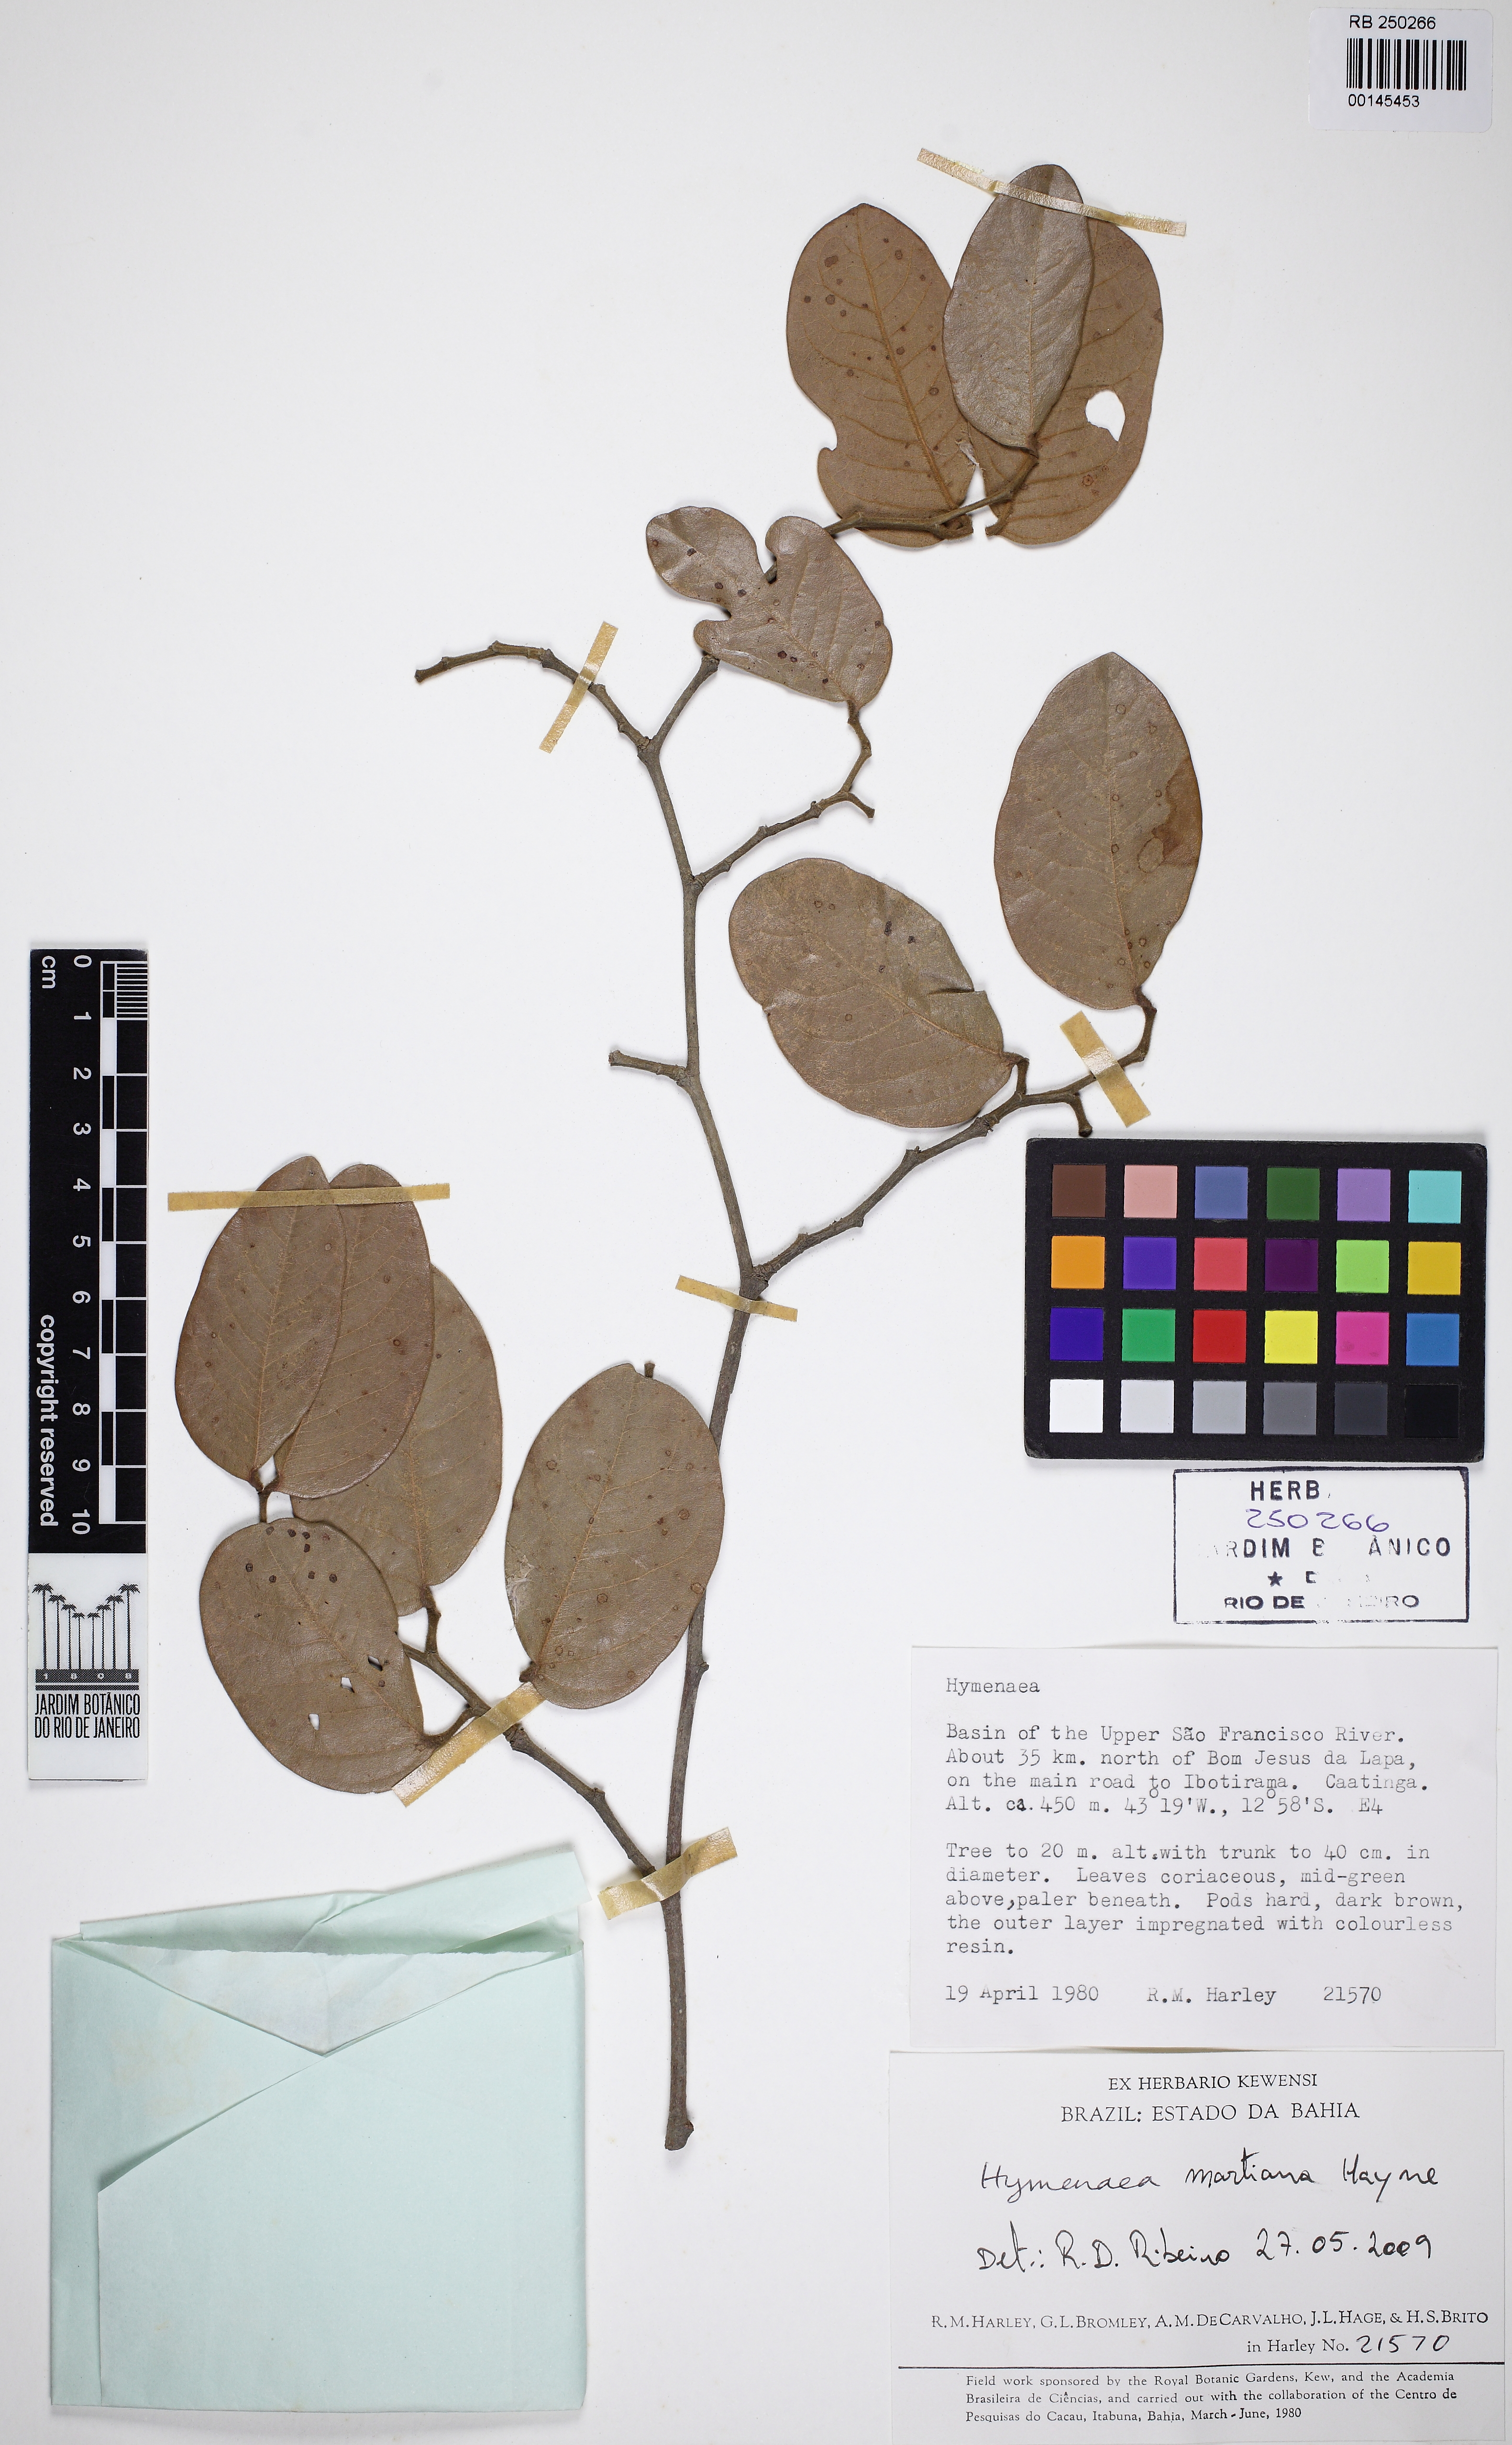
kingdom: Plantae
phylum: Tracheophyta
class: Magnoliopsida
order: Fabales
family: Fabaceae
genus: Hymenaea
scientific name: Hymenaea martiana
